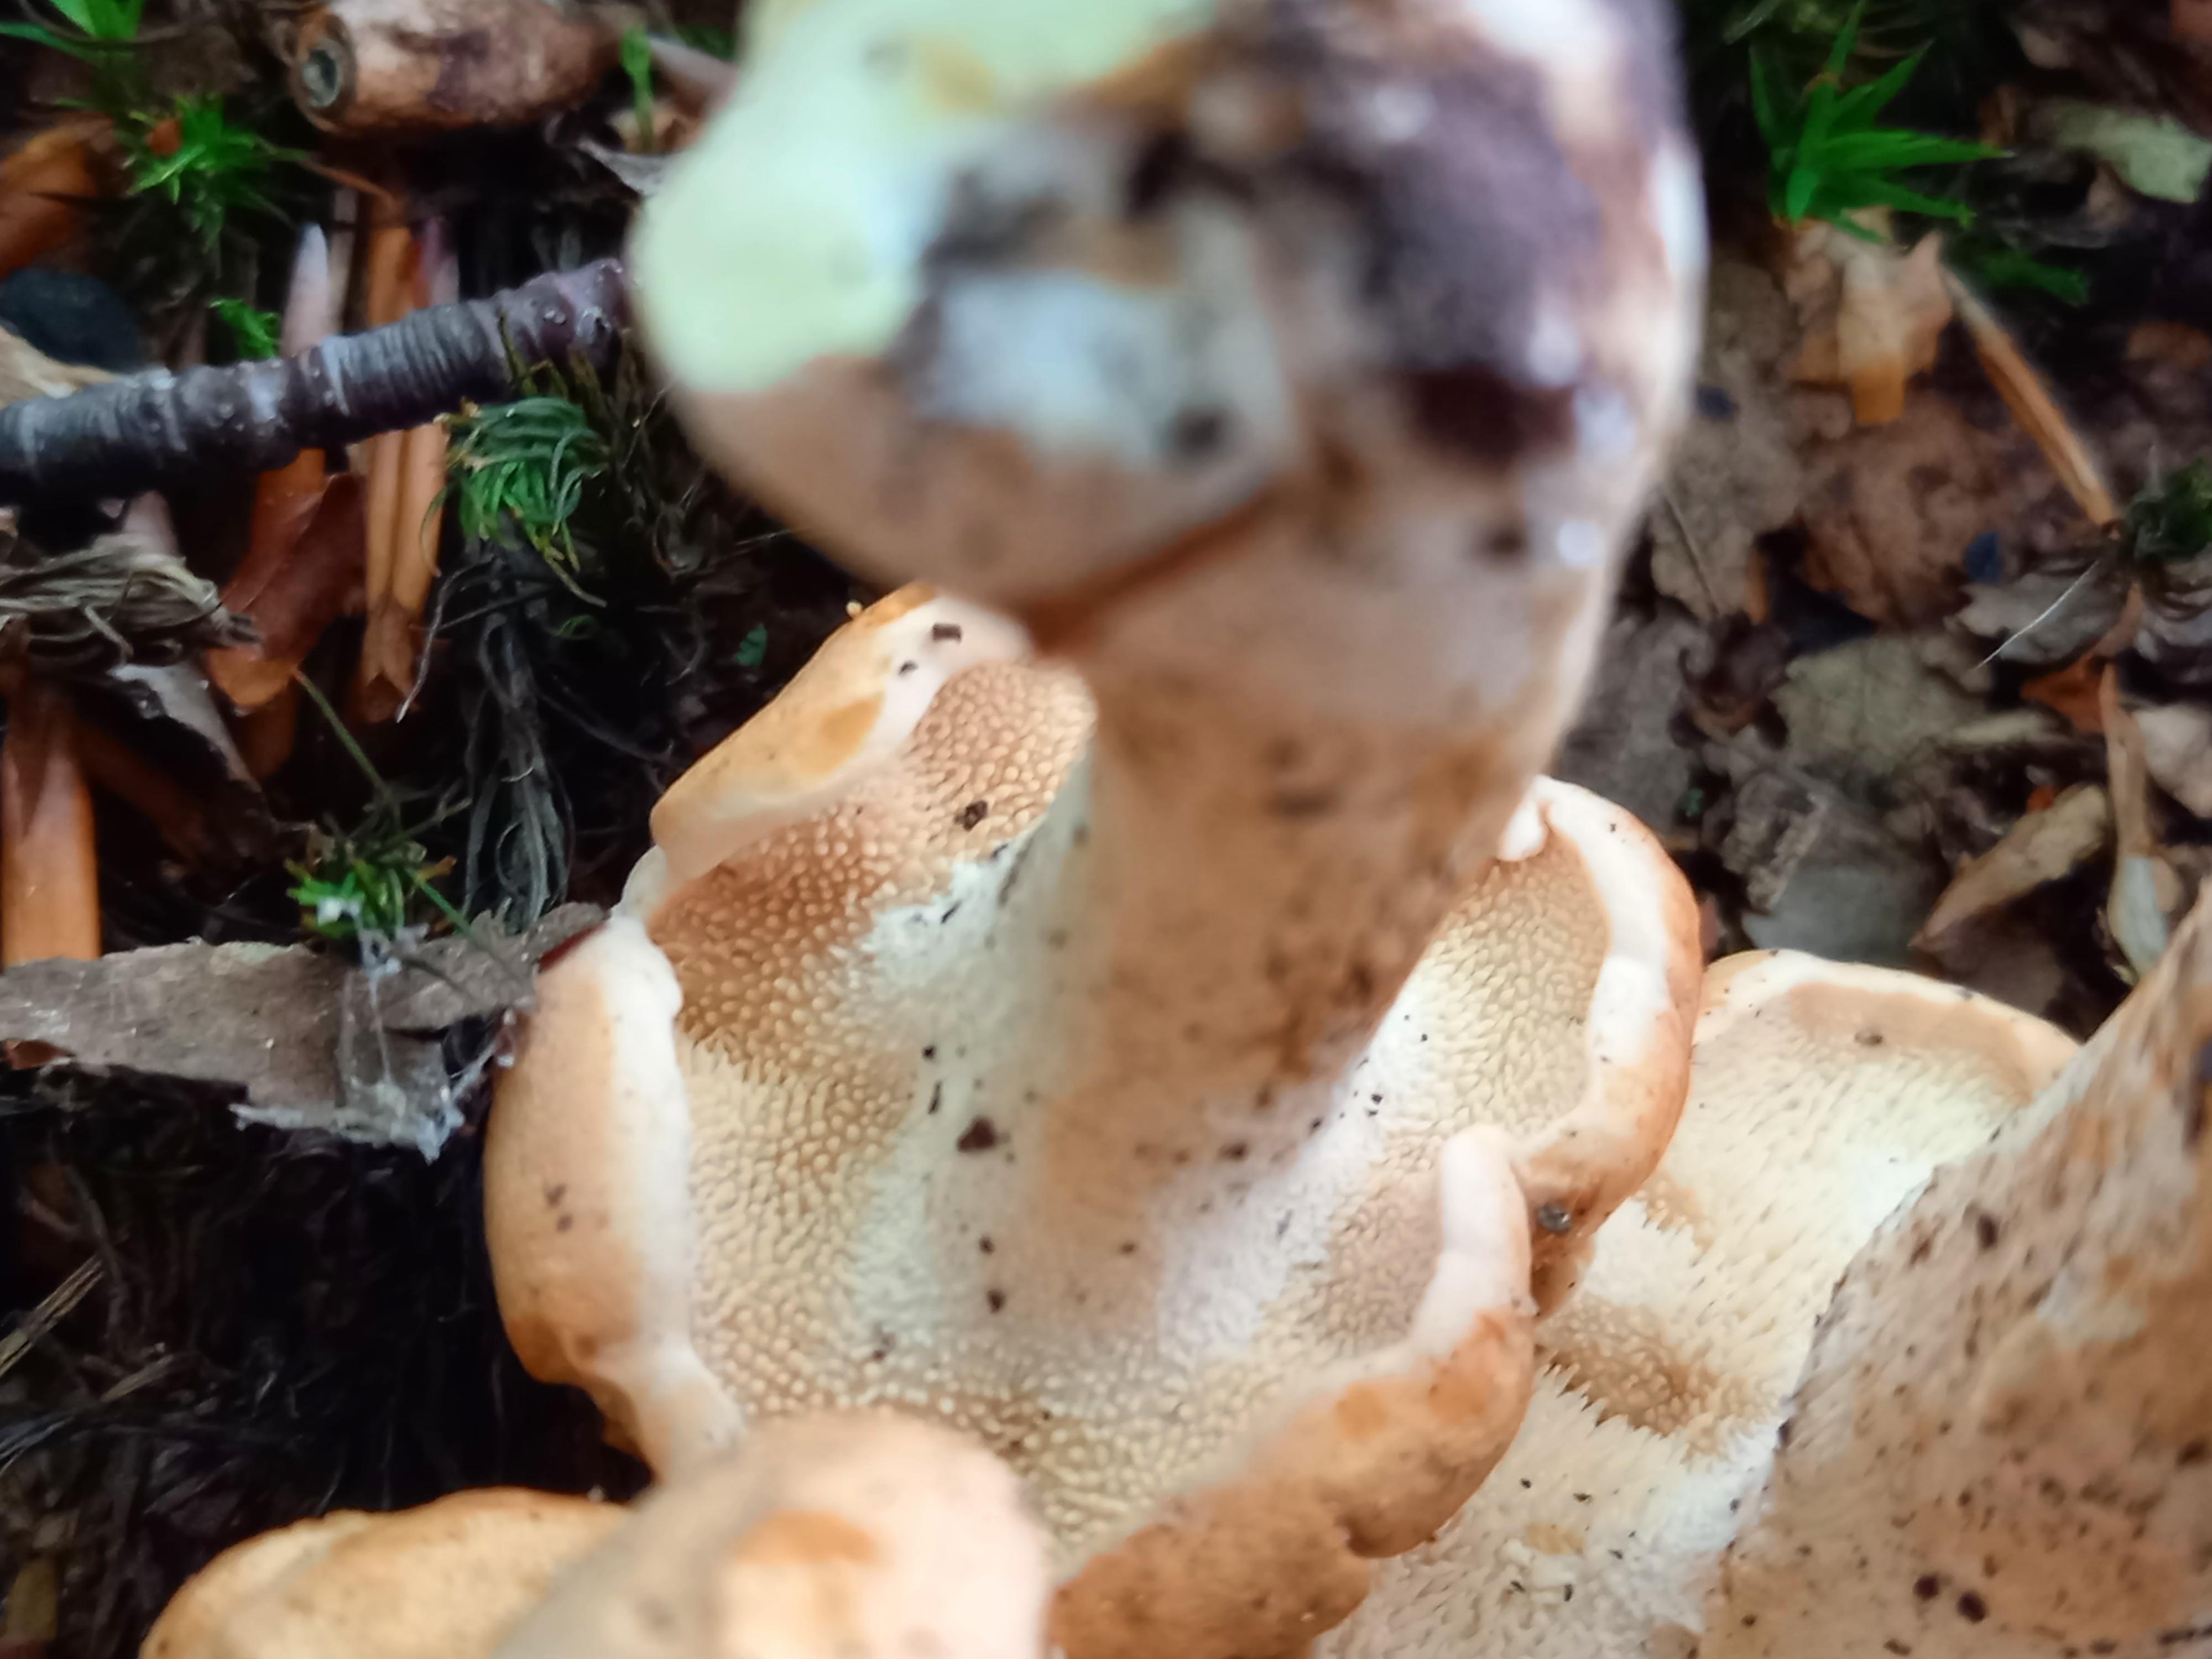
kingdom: Fungi
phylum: Basidiomycota
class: Agaricomycetes
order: Cantharellales
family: Hydnaceae
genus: Hydnum
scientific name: Hydnum repandum
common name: almindelig pigsvamp
